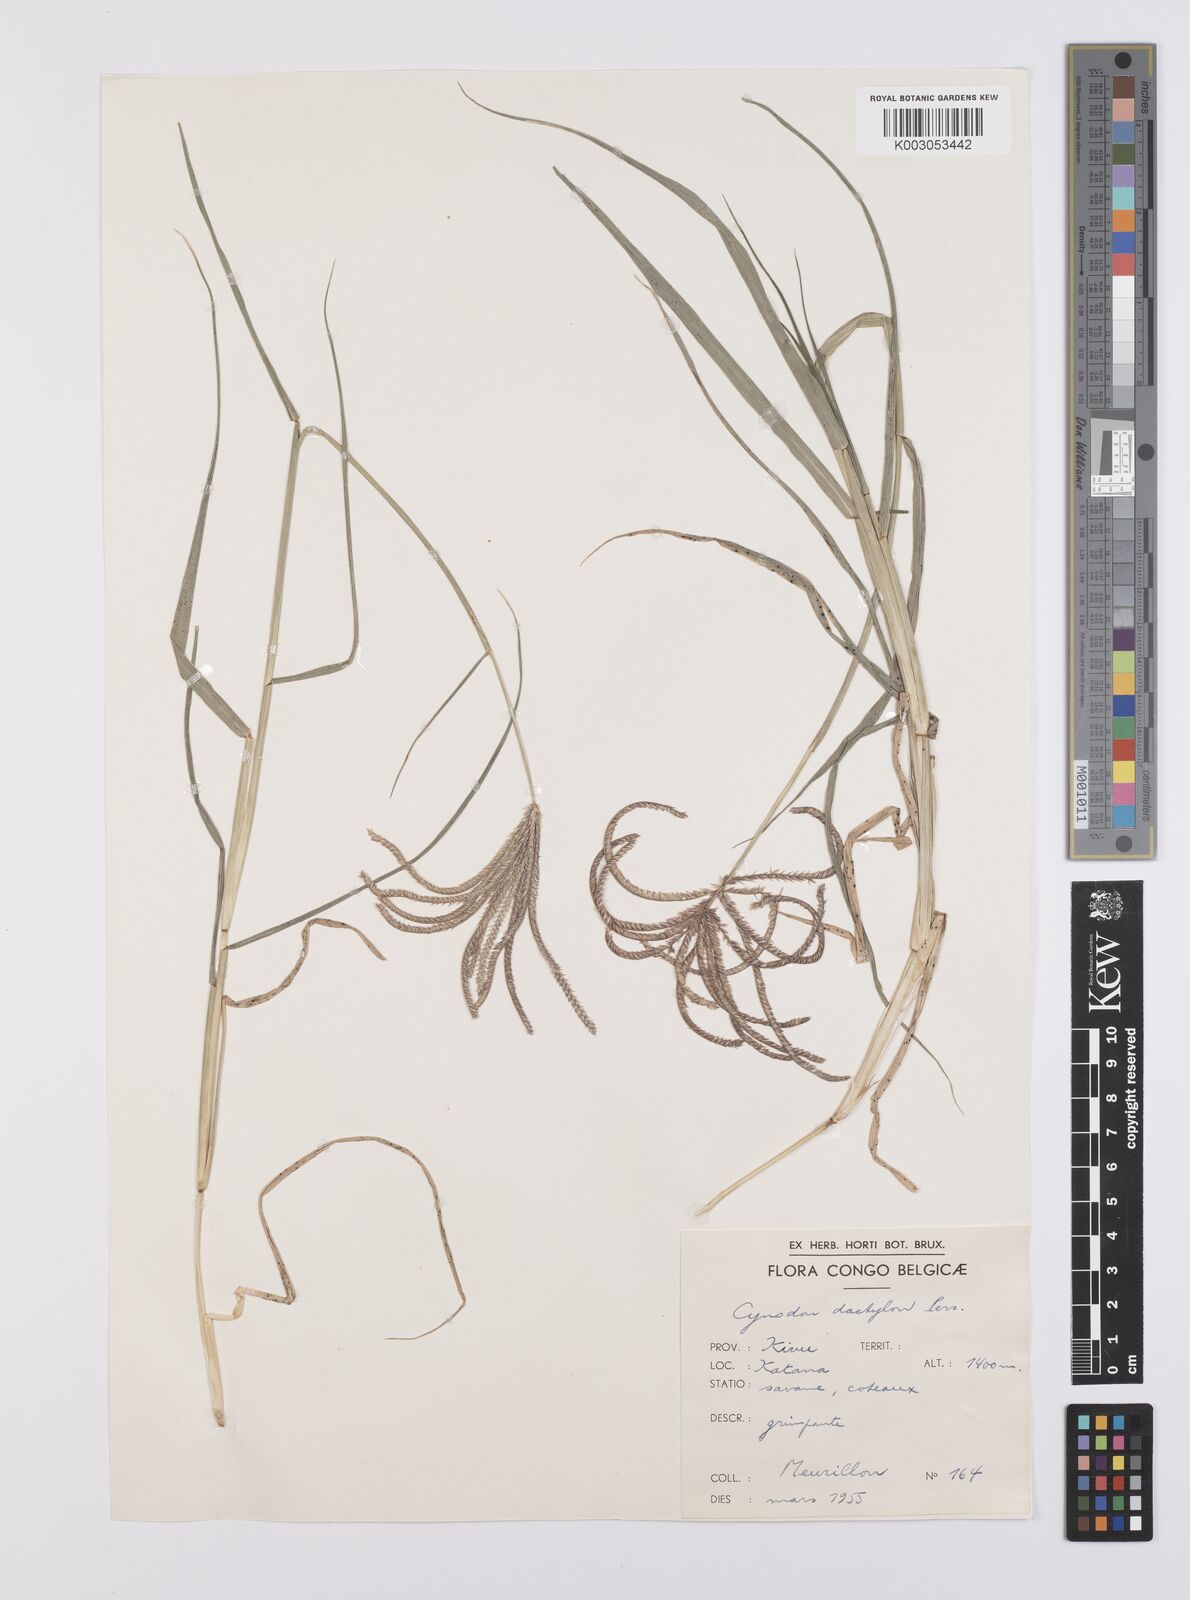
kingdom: Plantae
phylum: Tracheophyta
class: Liliopsida
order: Poales
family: Poaceae
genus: Cynodon
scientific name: Cynodon aethiopicus
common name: Ethiopian dogstooth grass
